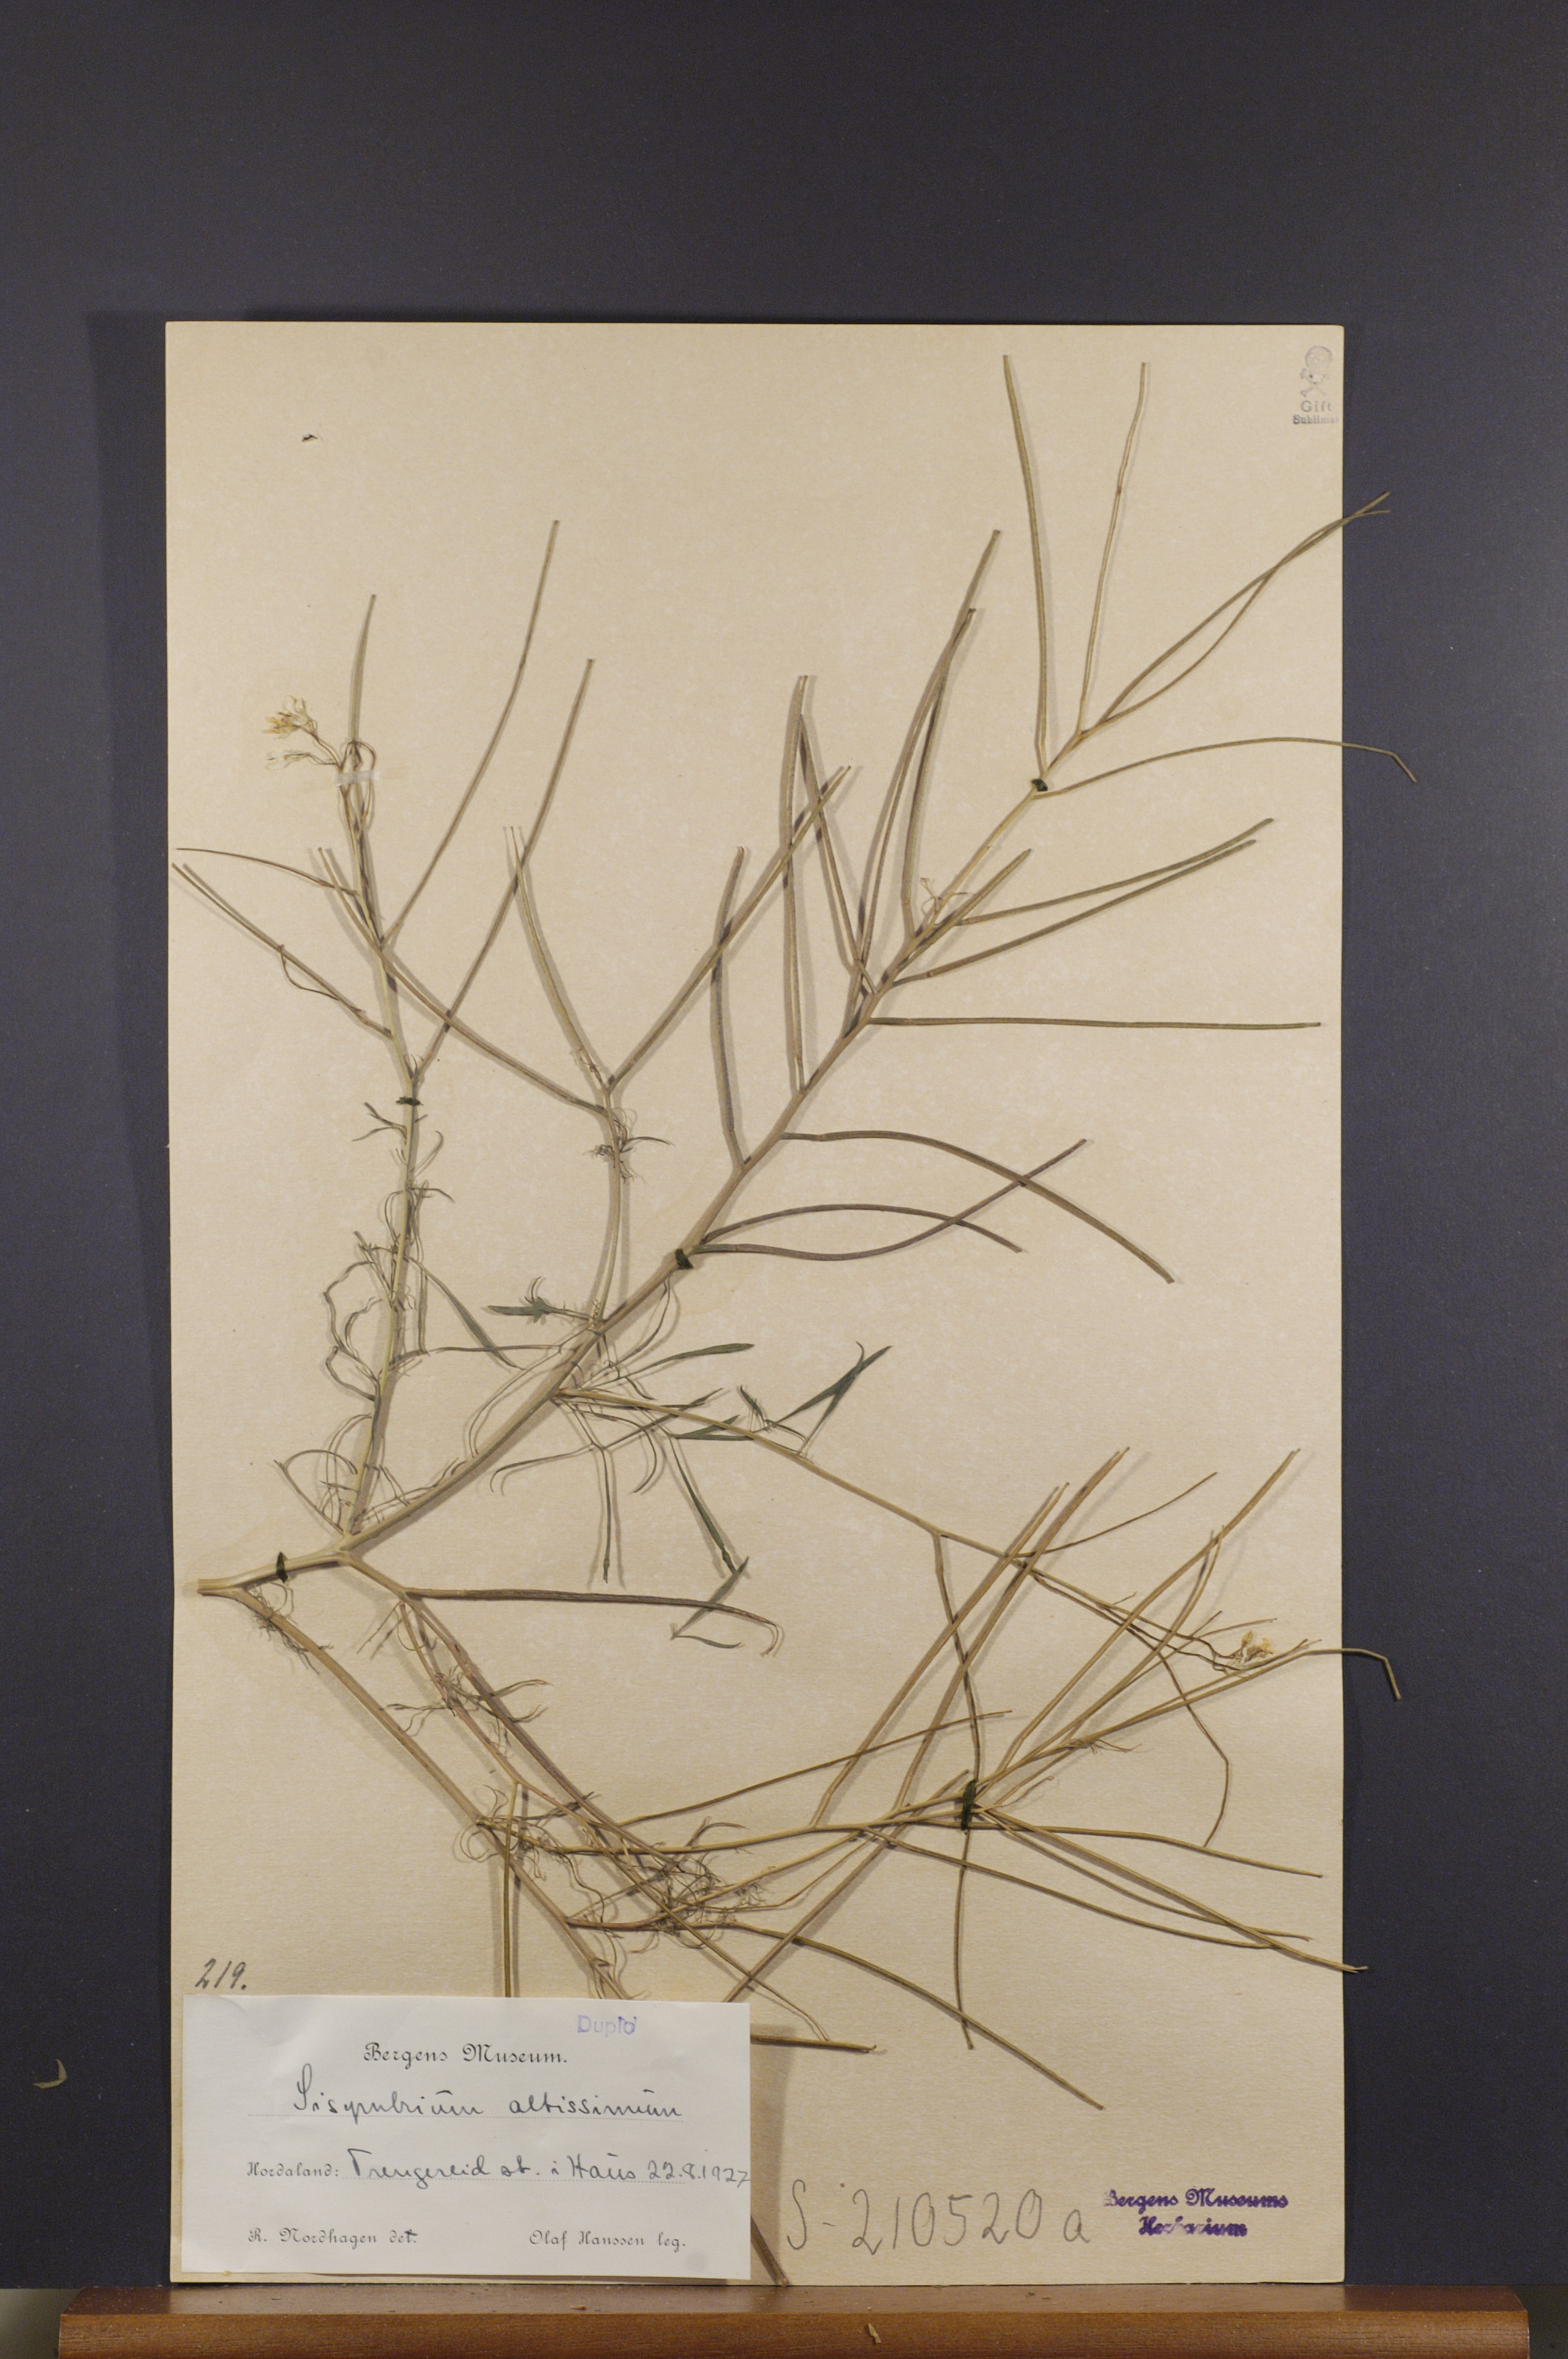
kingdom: Plantae
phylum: Tracheophyta
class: Magnoliopsida
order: Brassicales
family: Brassicaceae
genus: Sisymbrium
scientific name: Sisymbrium altissimum
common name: Tall rocket
